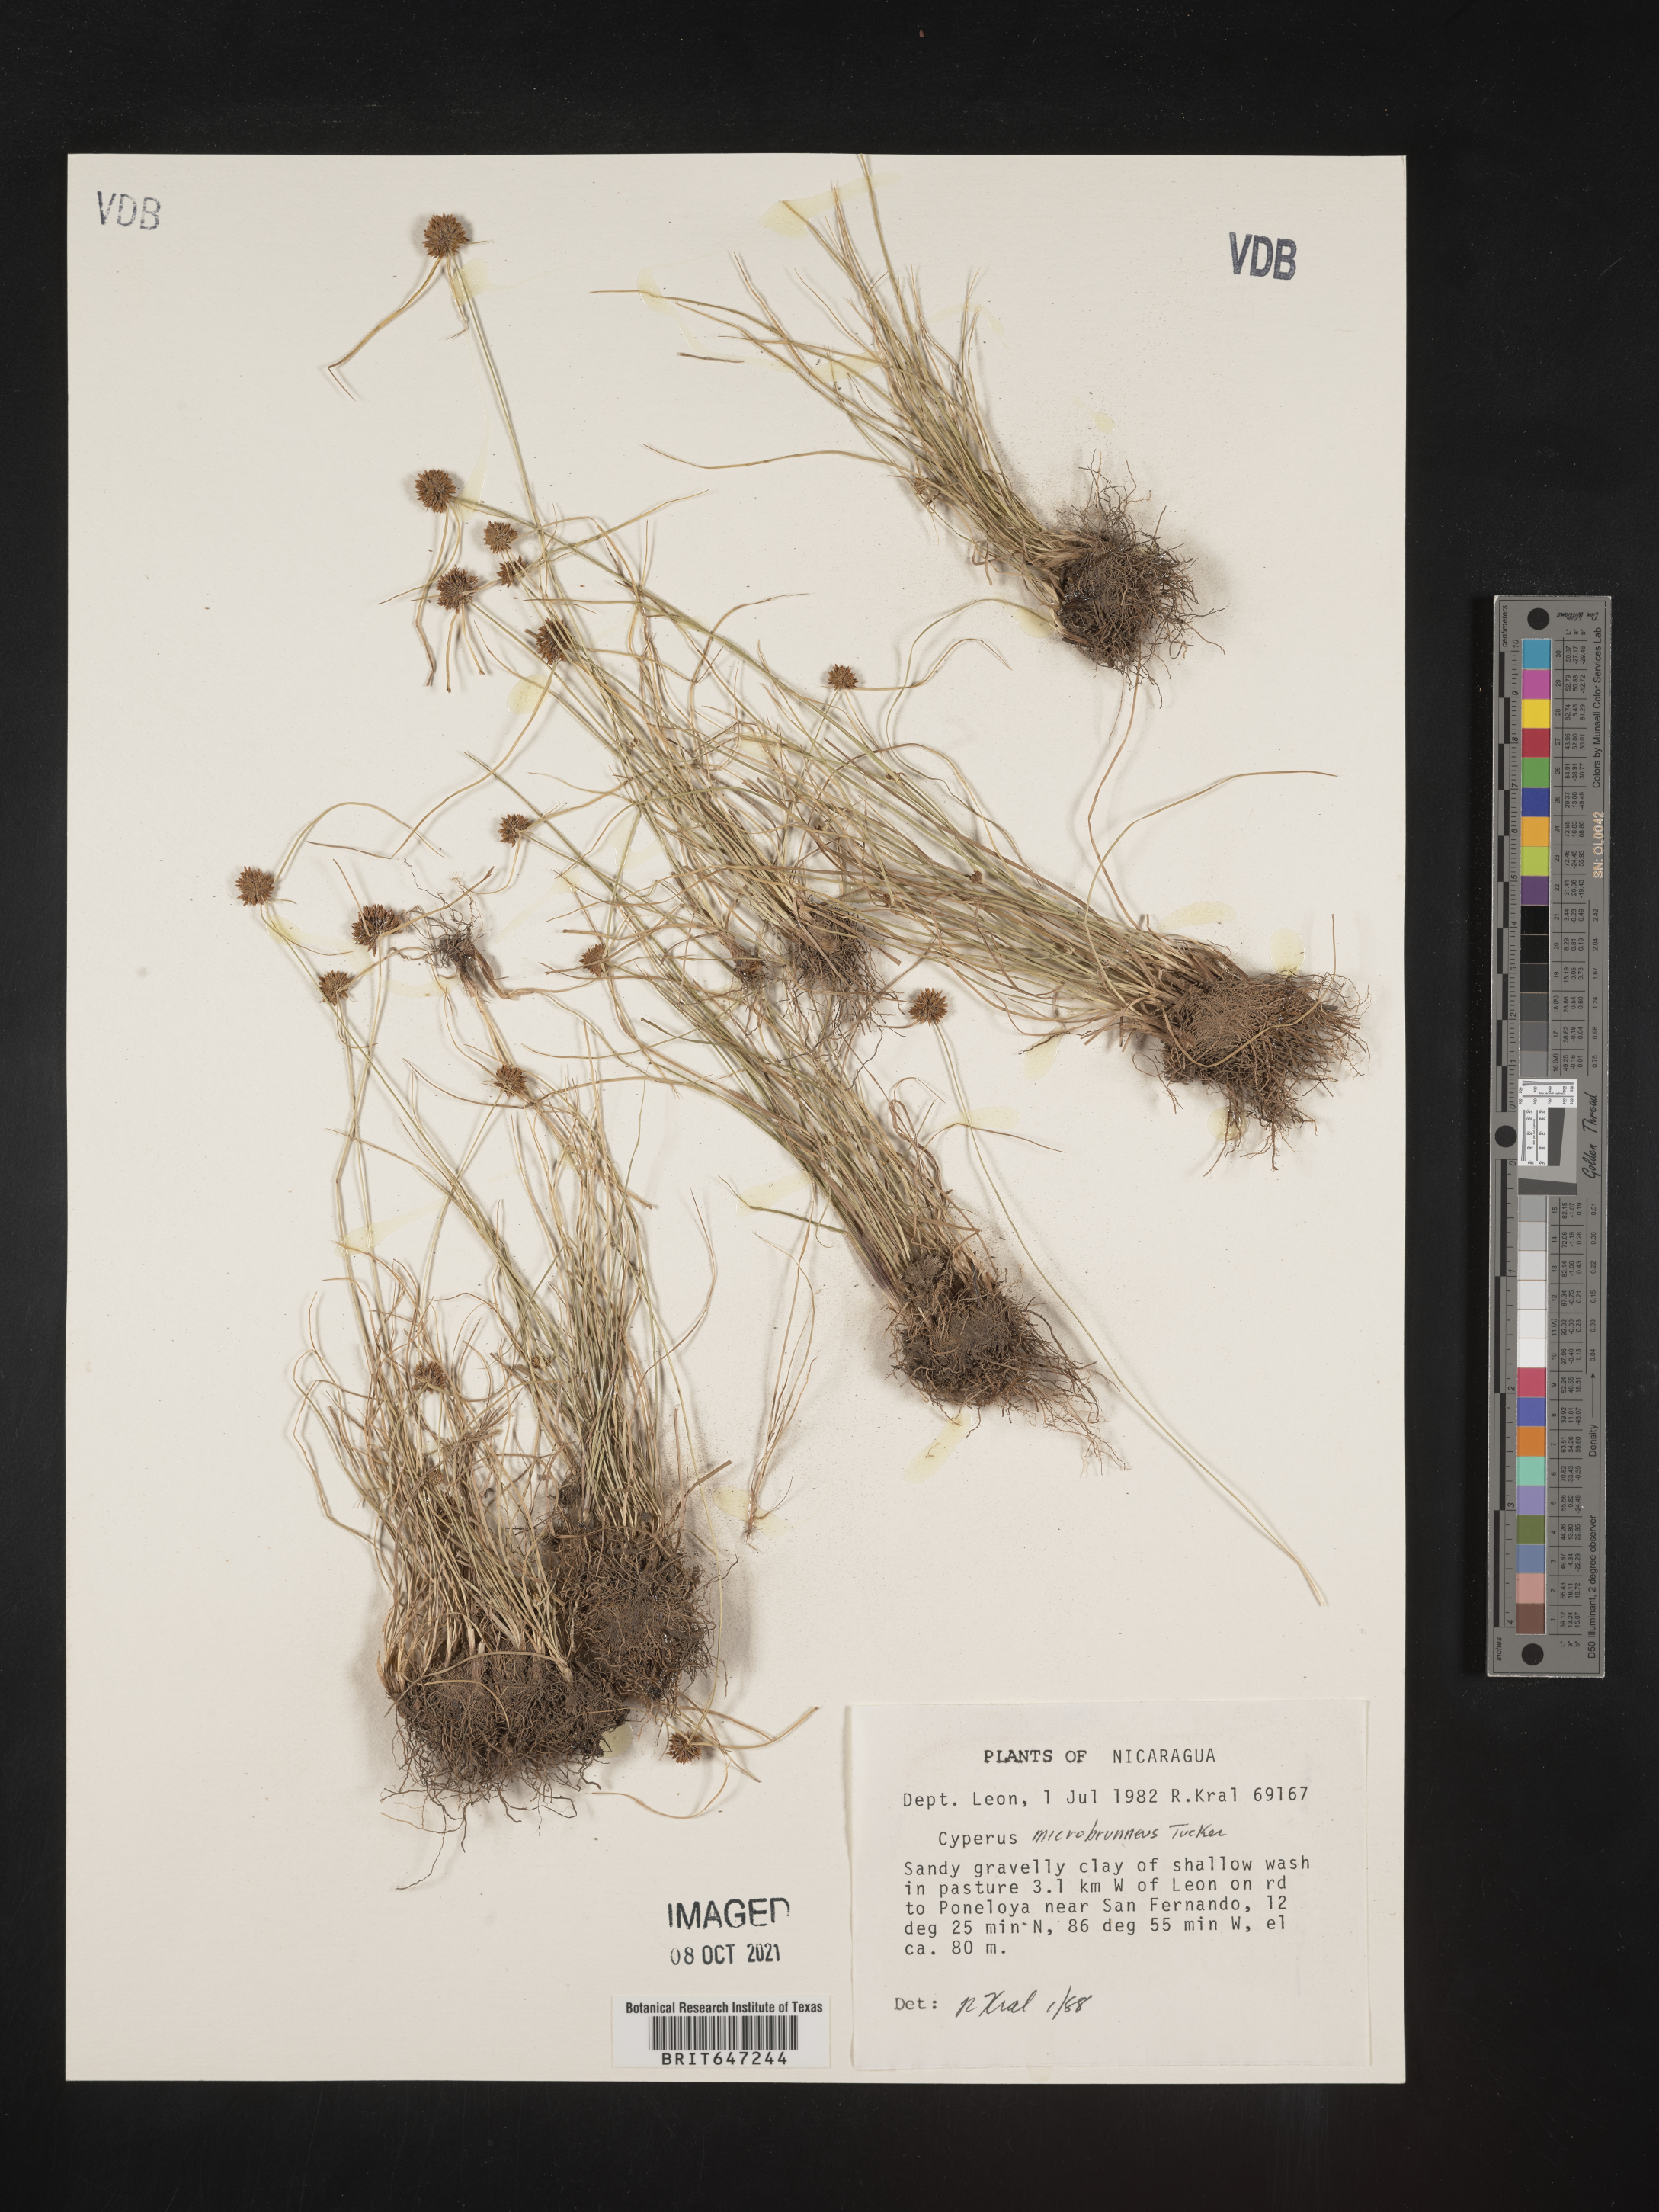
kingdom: Plantae
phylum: Tracheophyta
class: Liliopsida
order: Poales
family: Cyperaceae
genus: Cyperus
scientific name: Cyperus microbrunneus
